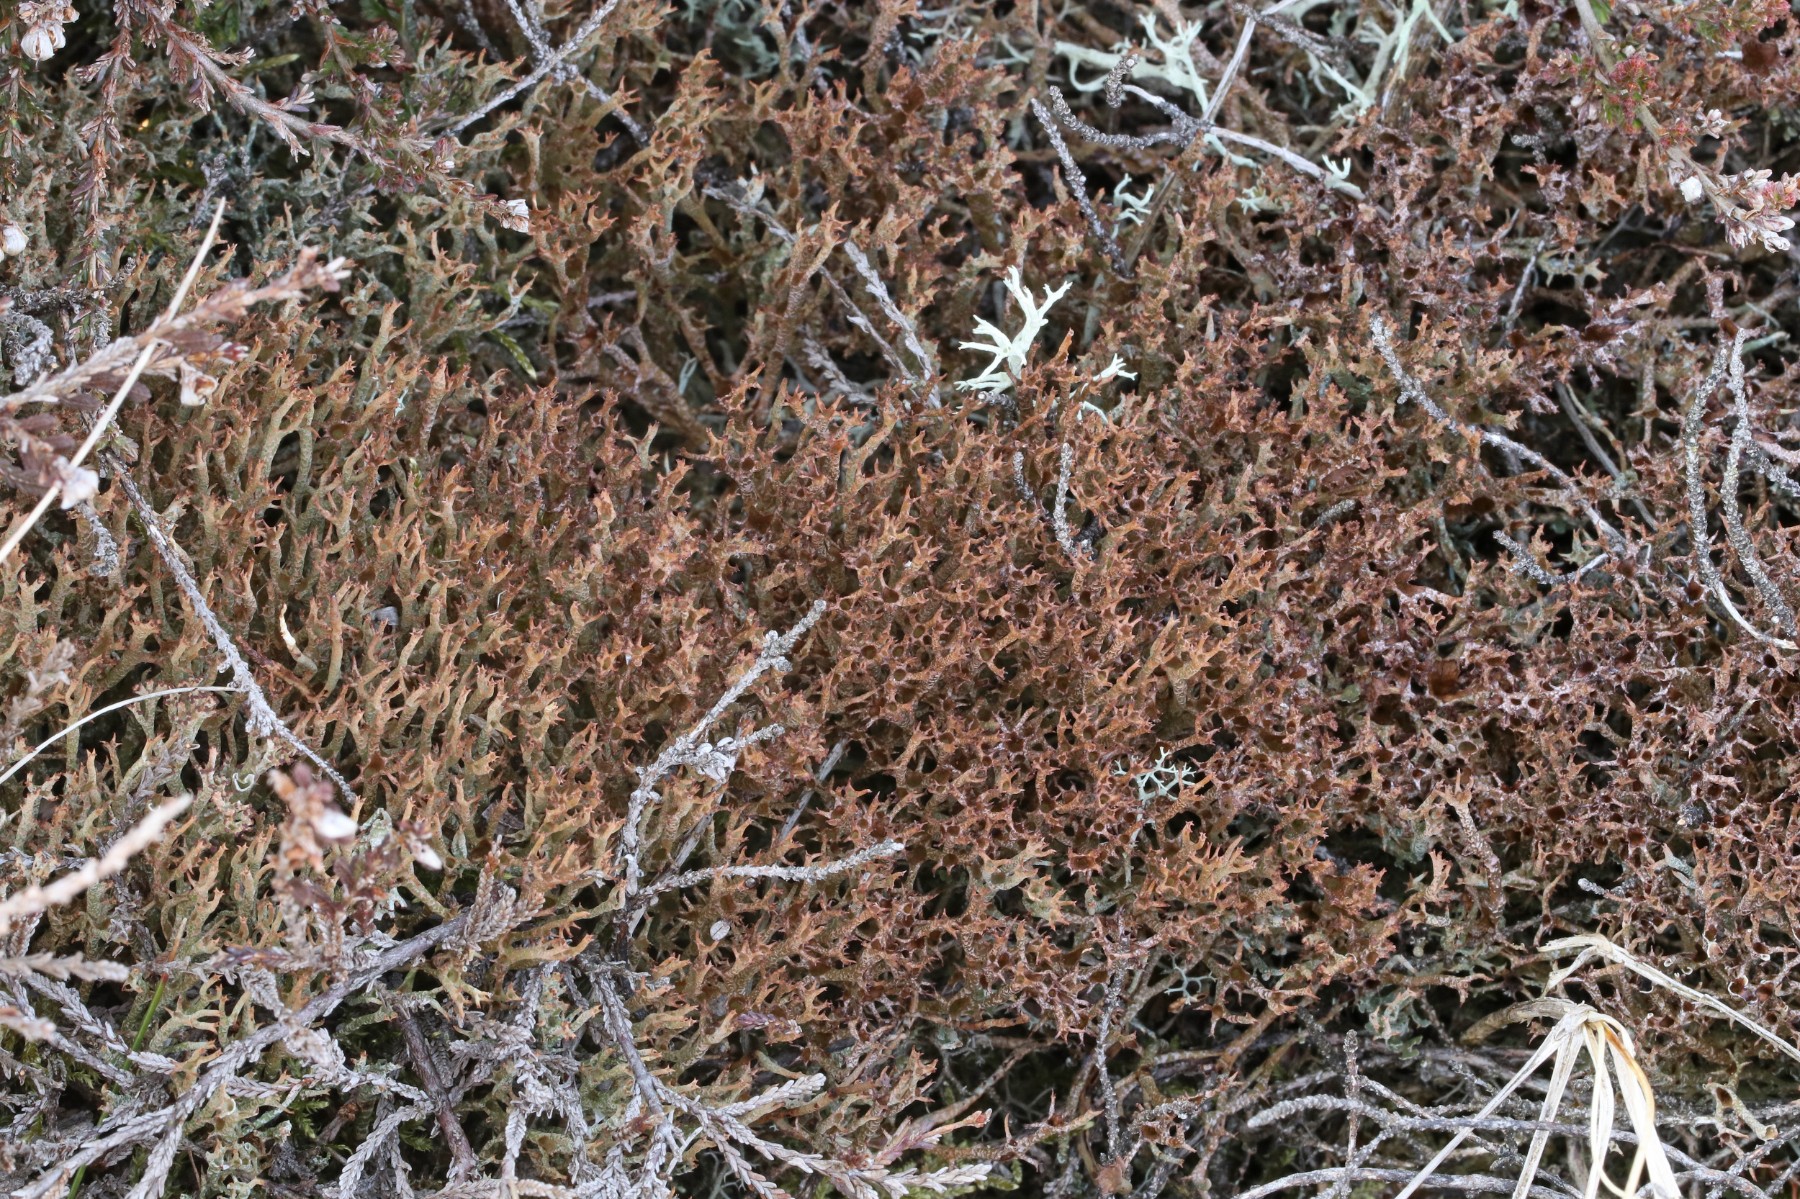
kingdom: Fungi
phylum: Ascomycota
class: Lecanoromycetes
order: Lecanorales
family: Cladoniaceae
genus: Cladonia
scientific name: Cladonia crispata
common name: takket bægerlav
